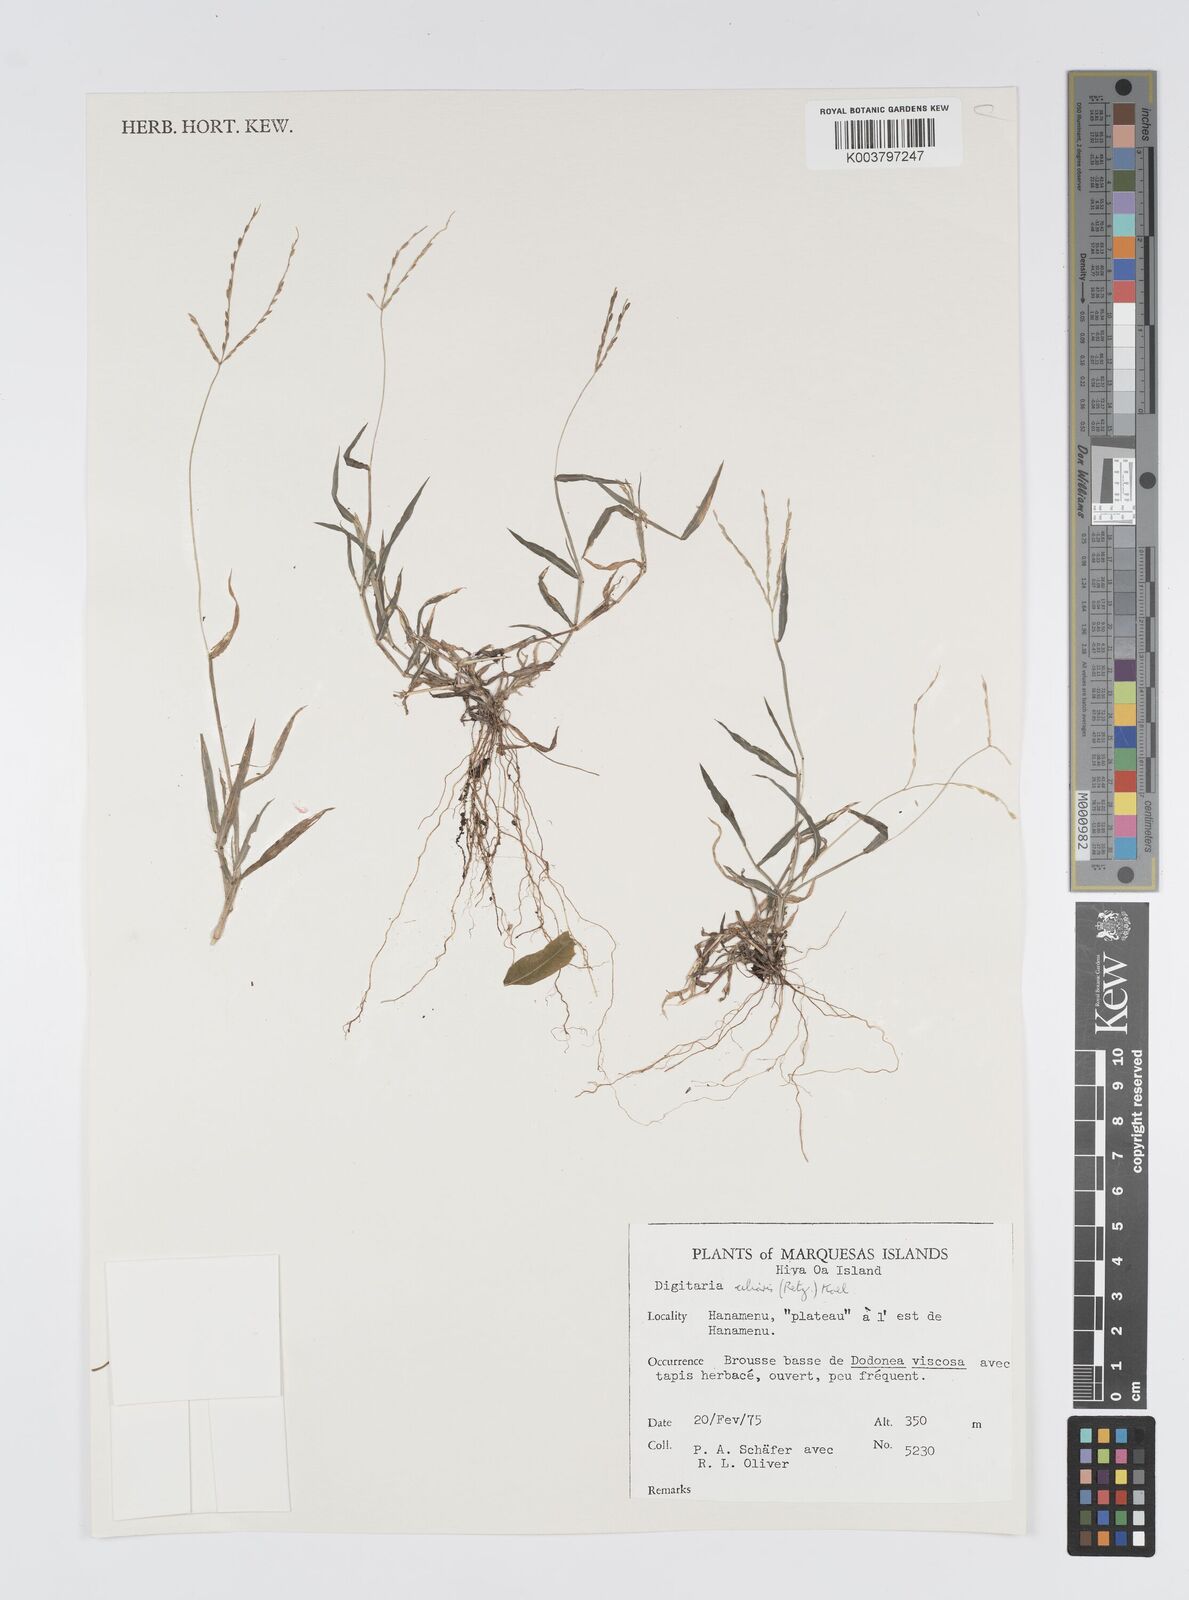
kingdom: Plantae
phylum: Tracheophyta
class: Liliopsida
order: Poales
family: Poaceae
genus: Digitaria
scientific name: Digitaria ciliaris
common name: Tropical finger-grass
